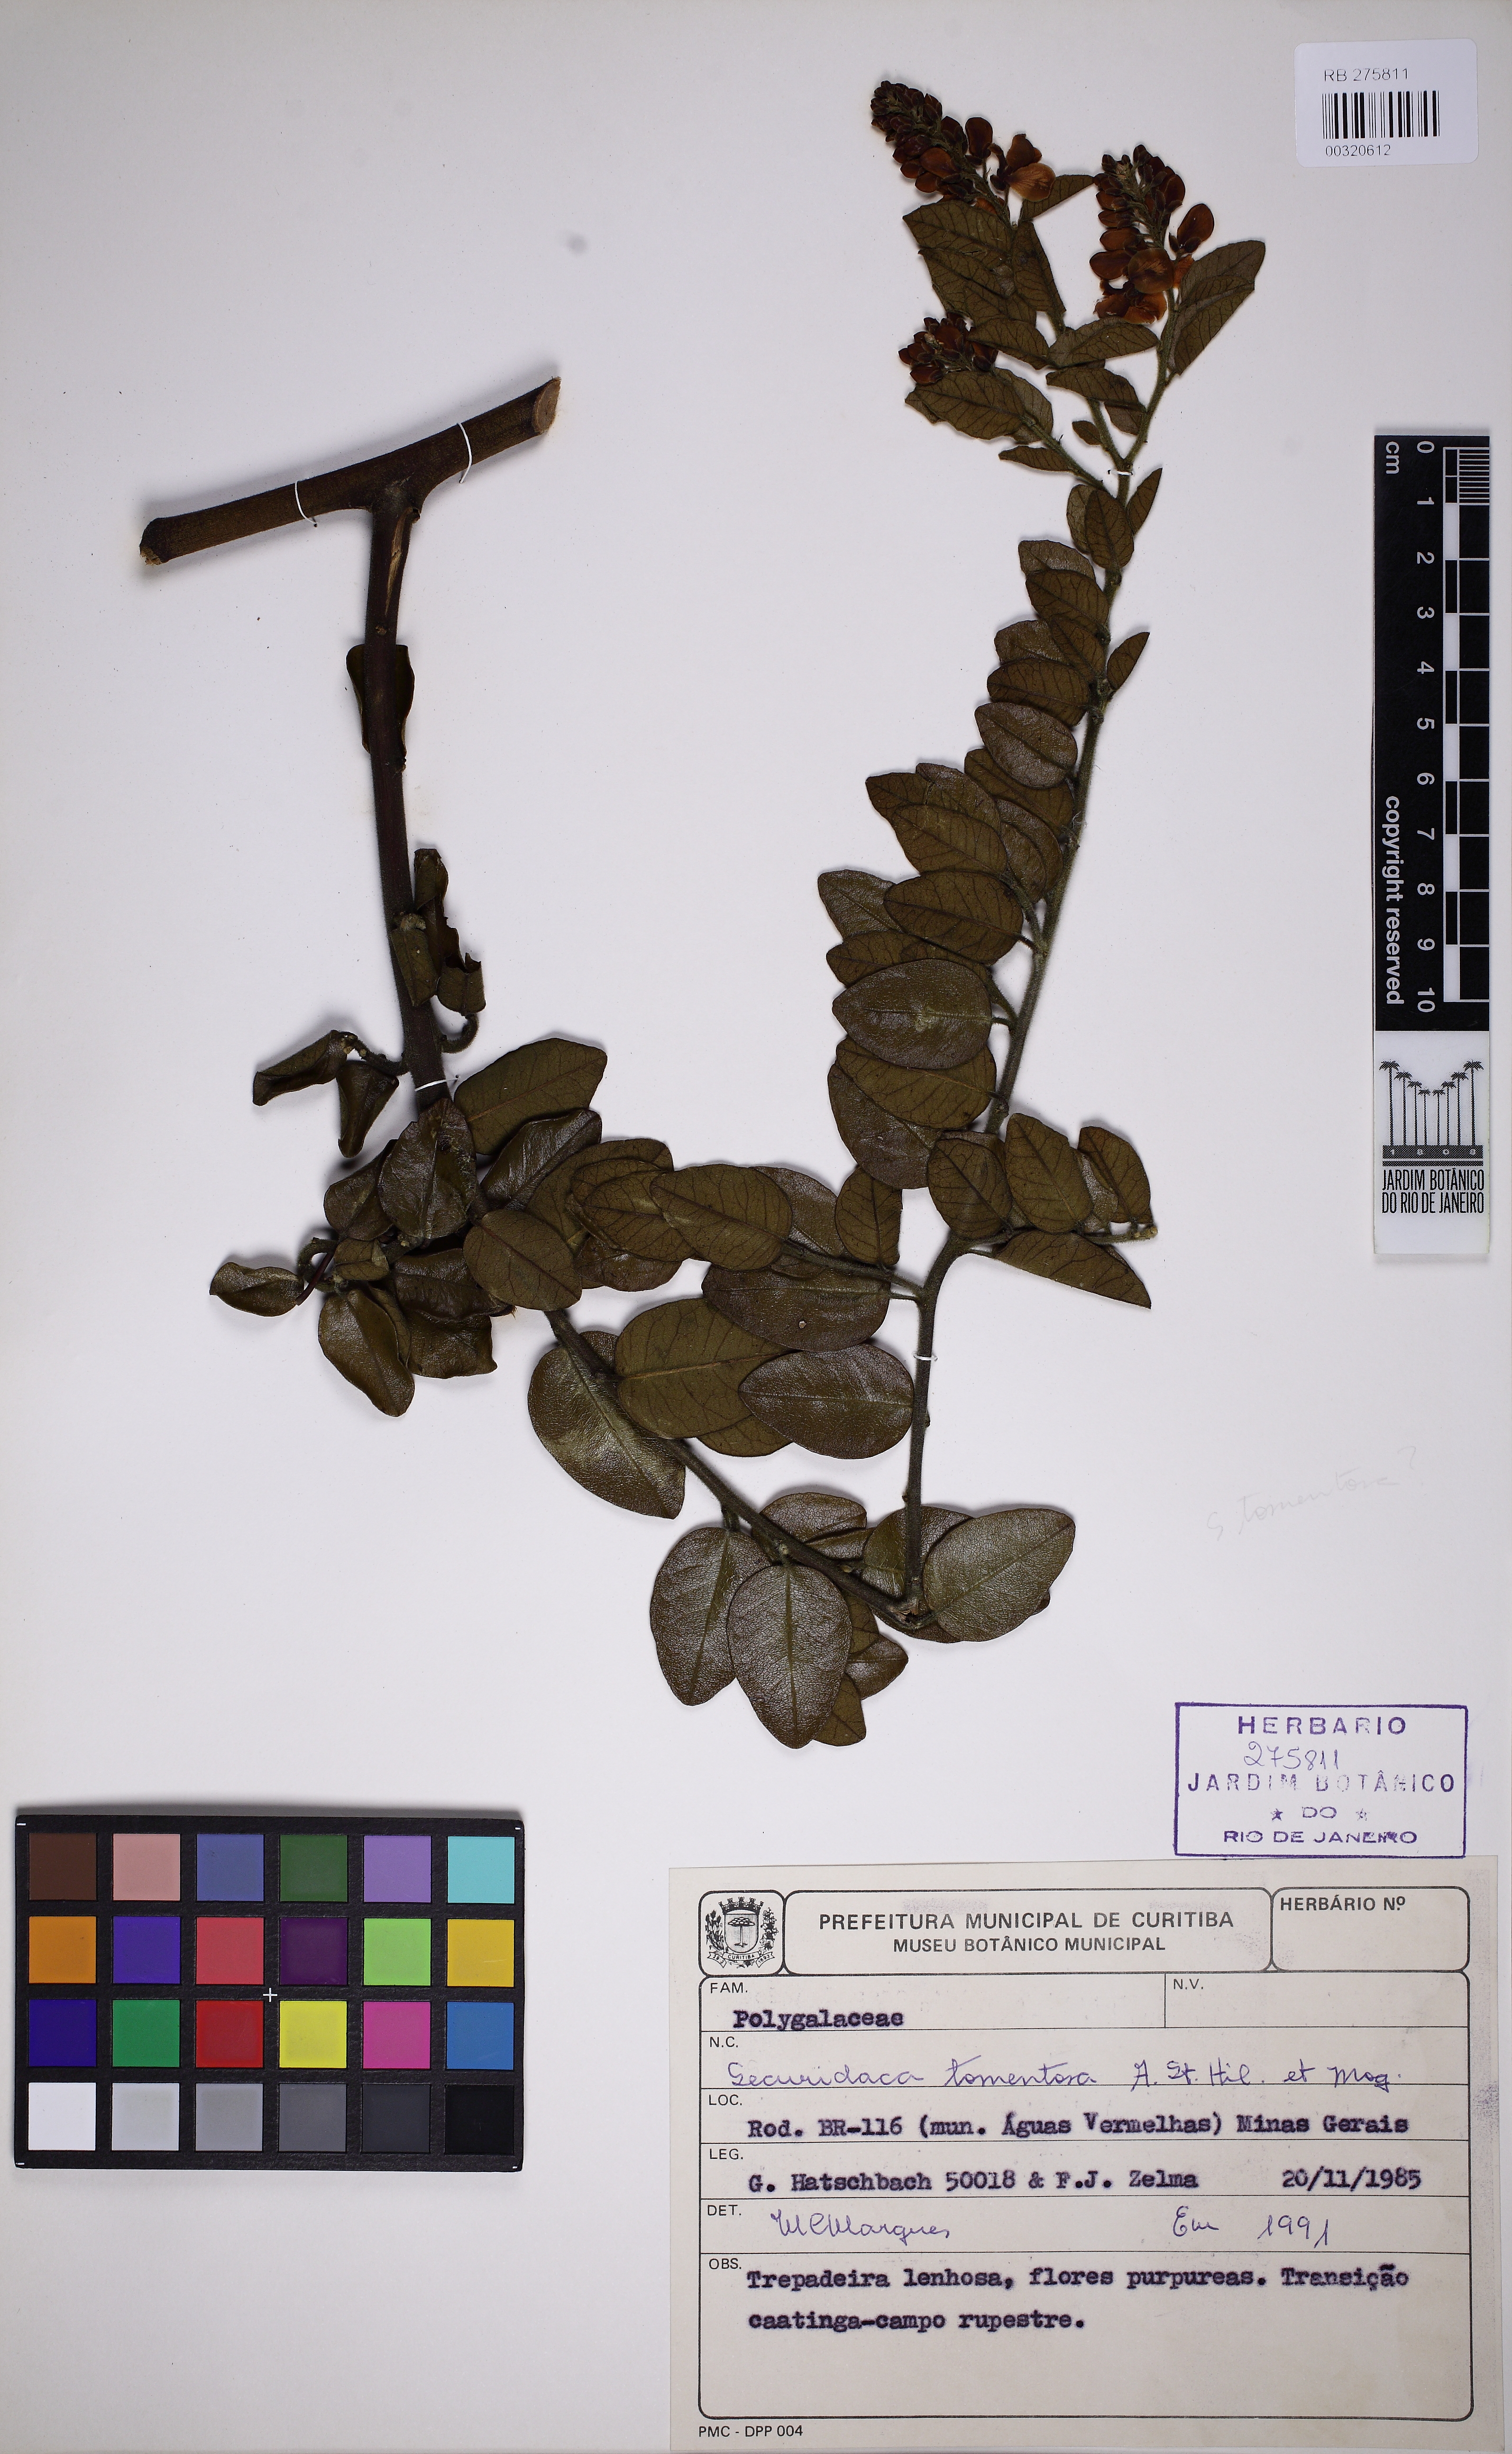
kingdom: Plantae
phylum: Tracheophyta
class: Magnoliopsida
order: Fabales
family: Polygalaceae
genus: Securidaca
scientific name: Securidaca tomentosa
